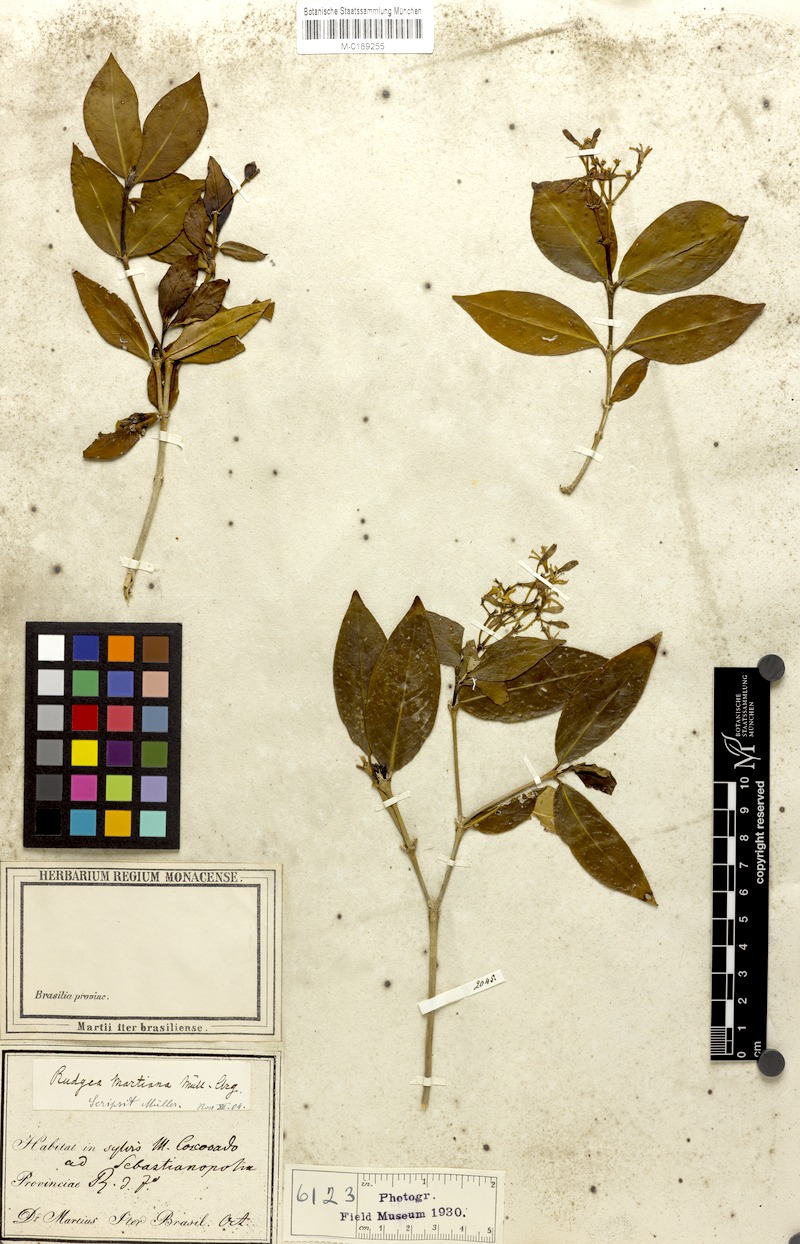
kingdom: Plantae
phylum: Tracheophyta
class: Magnoliopsida
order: Gentianales
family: Rubiaceae
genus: Rudgea
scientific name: Rudgea minor
